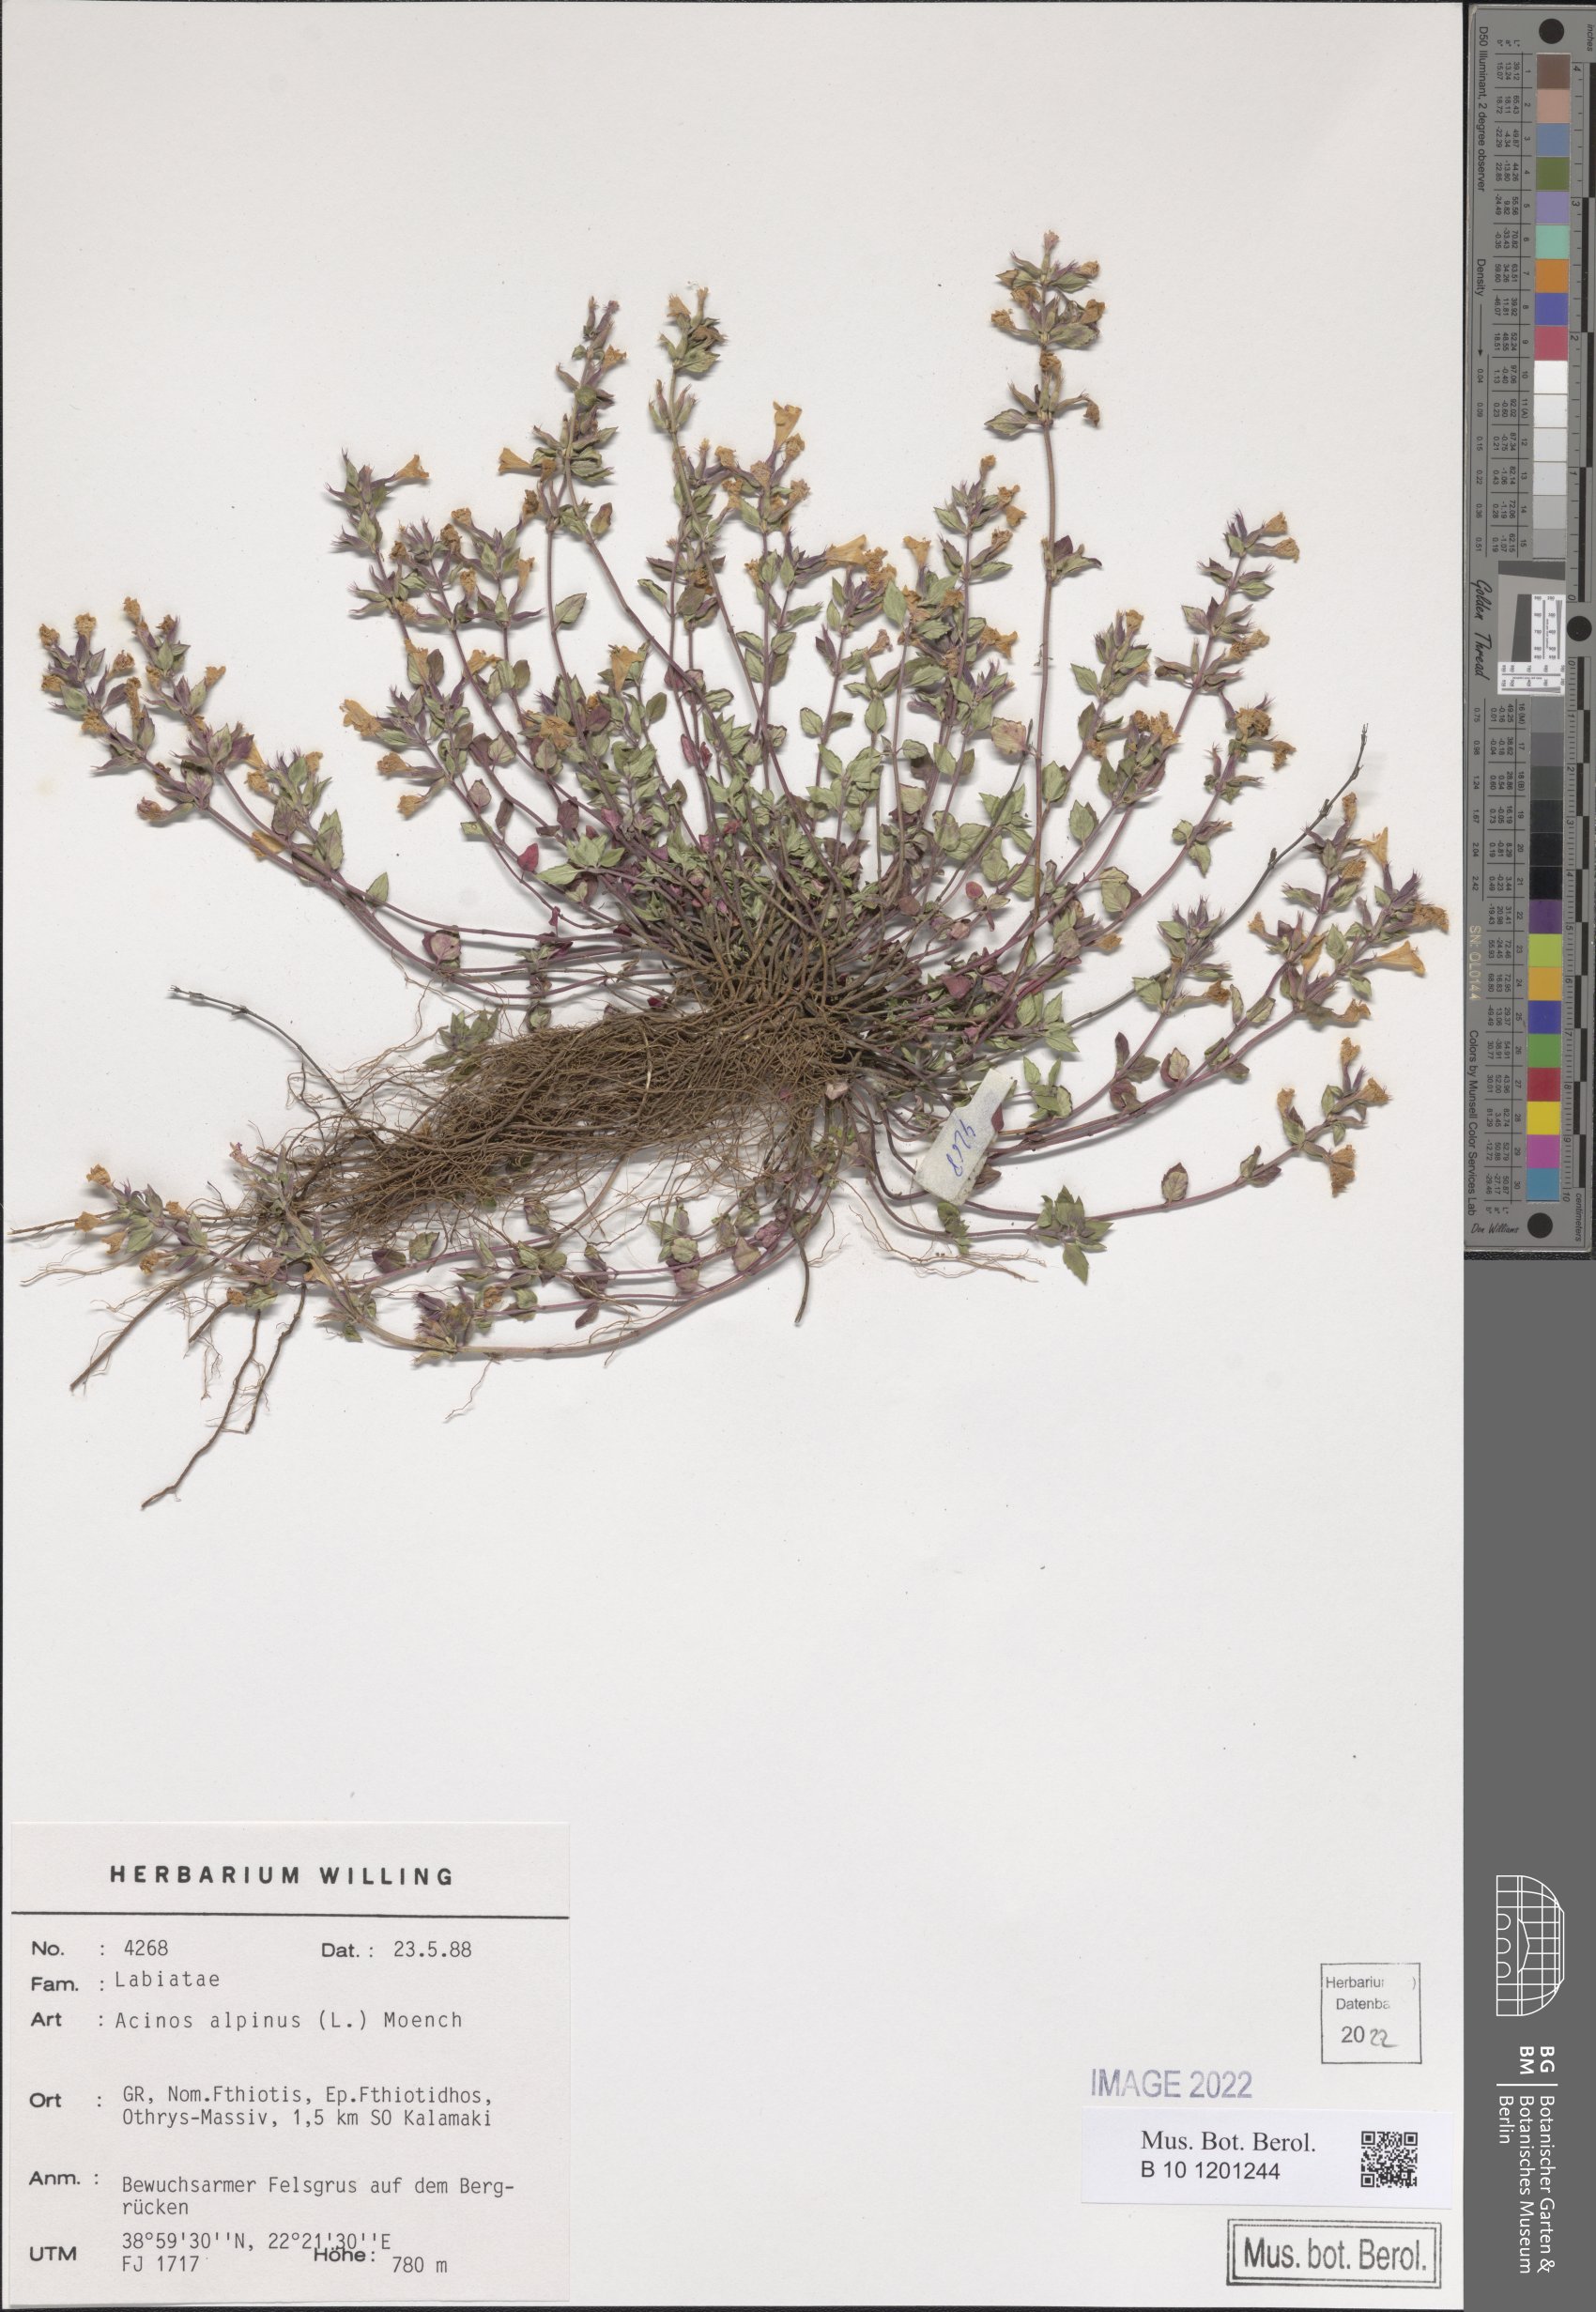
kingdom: Plantae
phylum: Tracheophyta
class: Magnoliopsida
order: Lamiales
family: Lamiaceae
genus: Clinopodium
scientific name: Clinopodium alpinum
